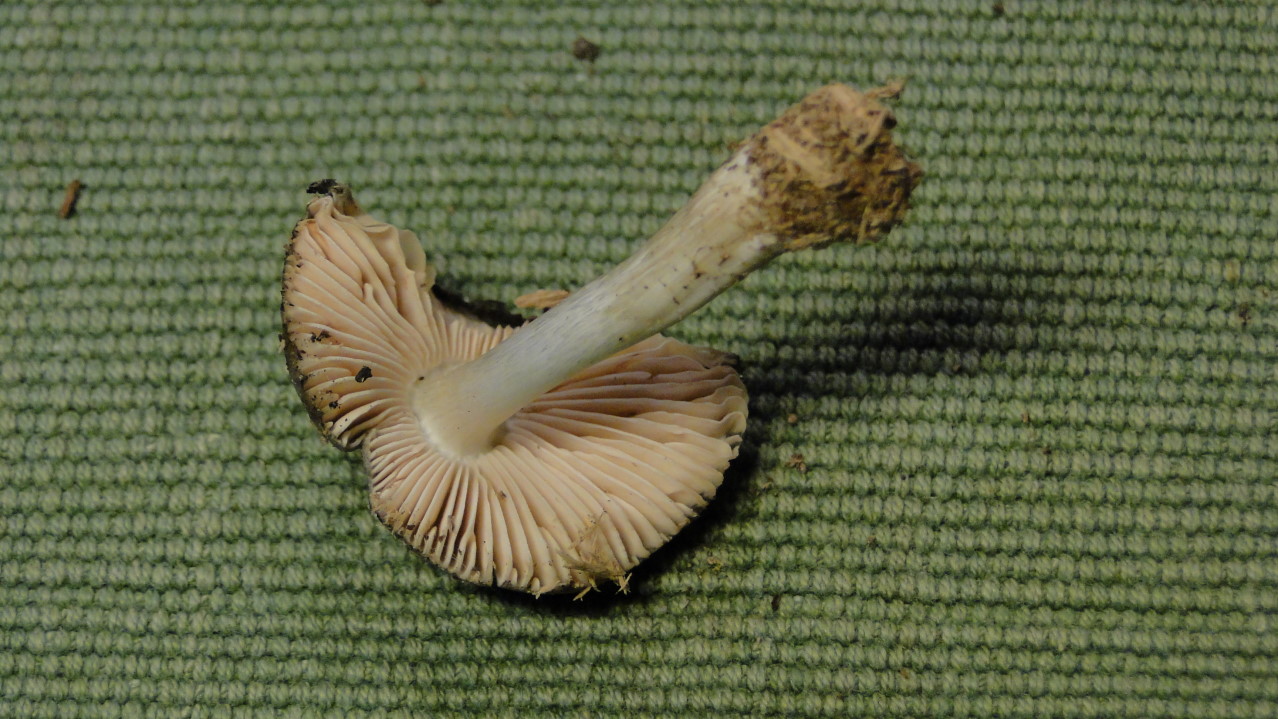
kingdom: Fungi
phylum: Basidiomycota
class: Agaricomycetes
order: Agaricales
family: Pluteaceae
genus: Pluteus
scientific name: Pluteus salicinus
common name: stiv skærmhat
